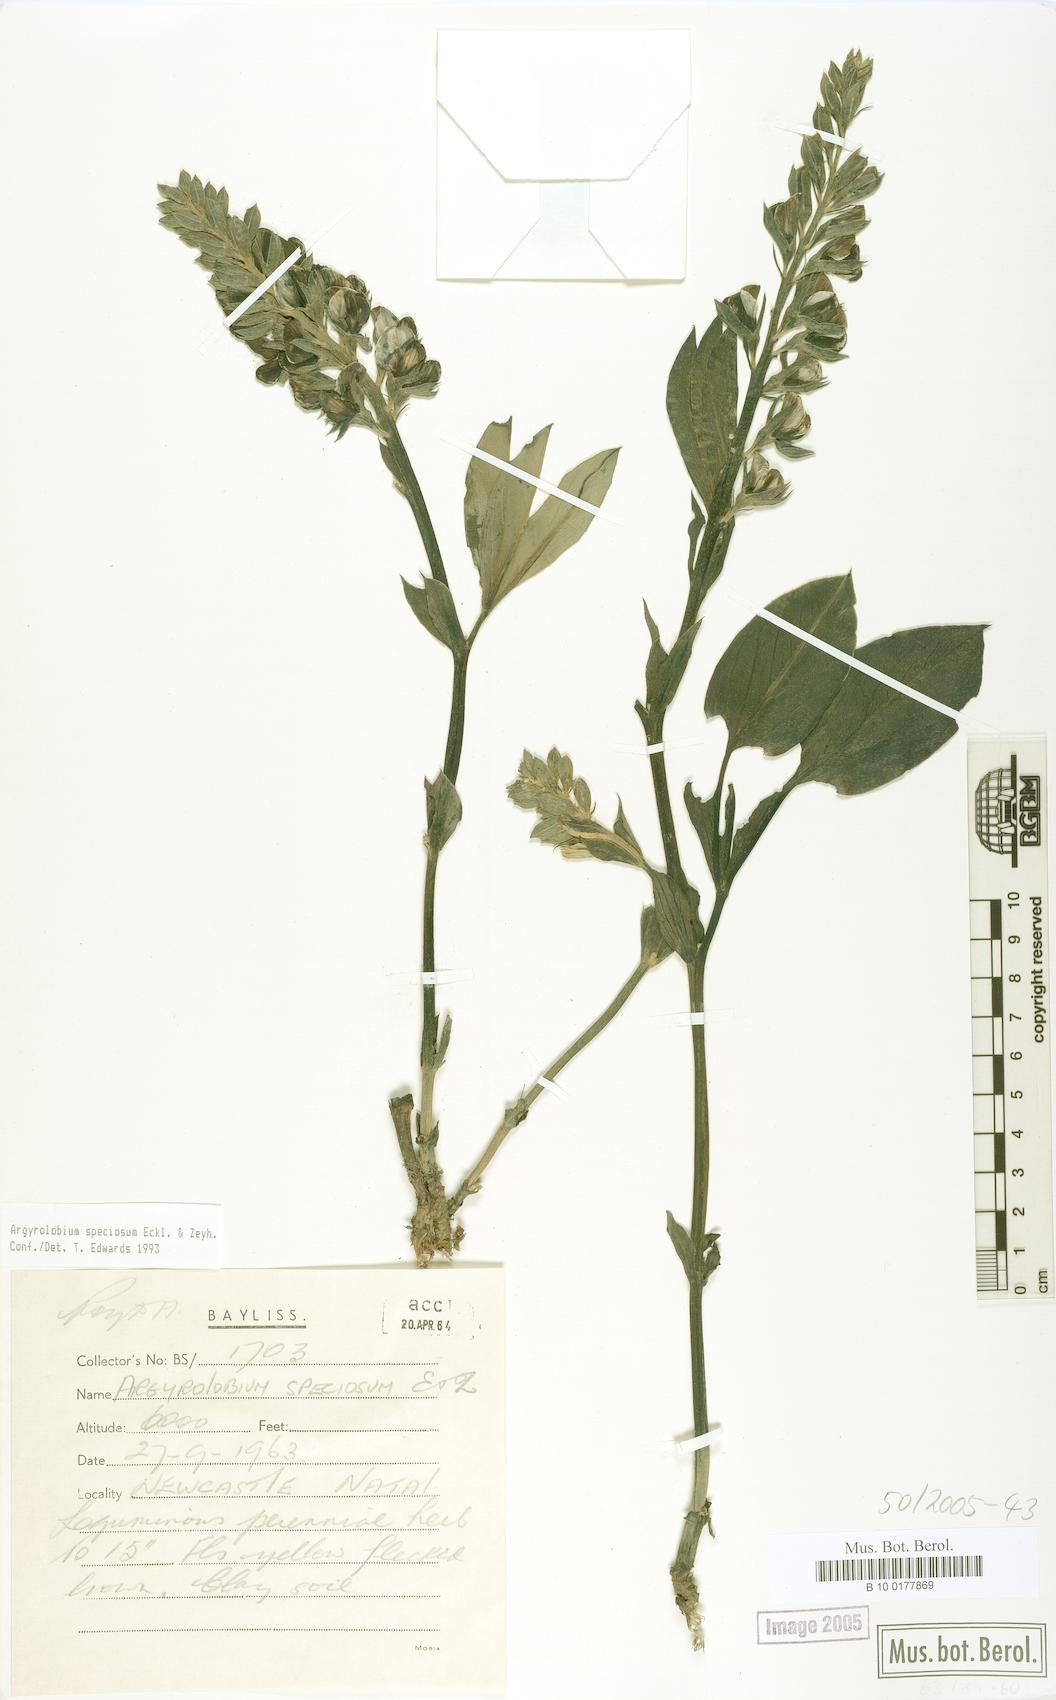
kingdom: Plantae
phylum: Tracheophyta
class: Magnoliopsida
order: Fabales
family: Fabaceae
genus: Argyrolobium
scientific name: Argyrolobium speciosum
